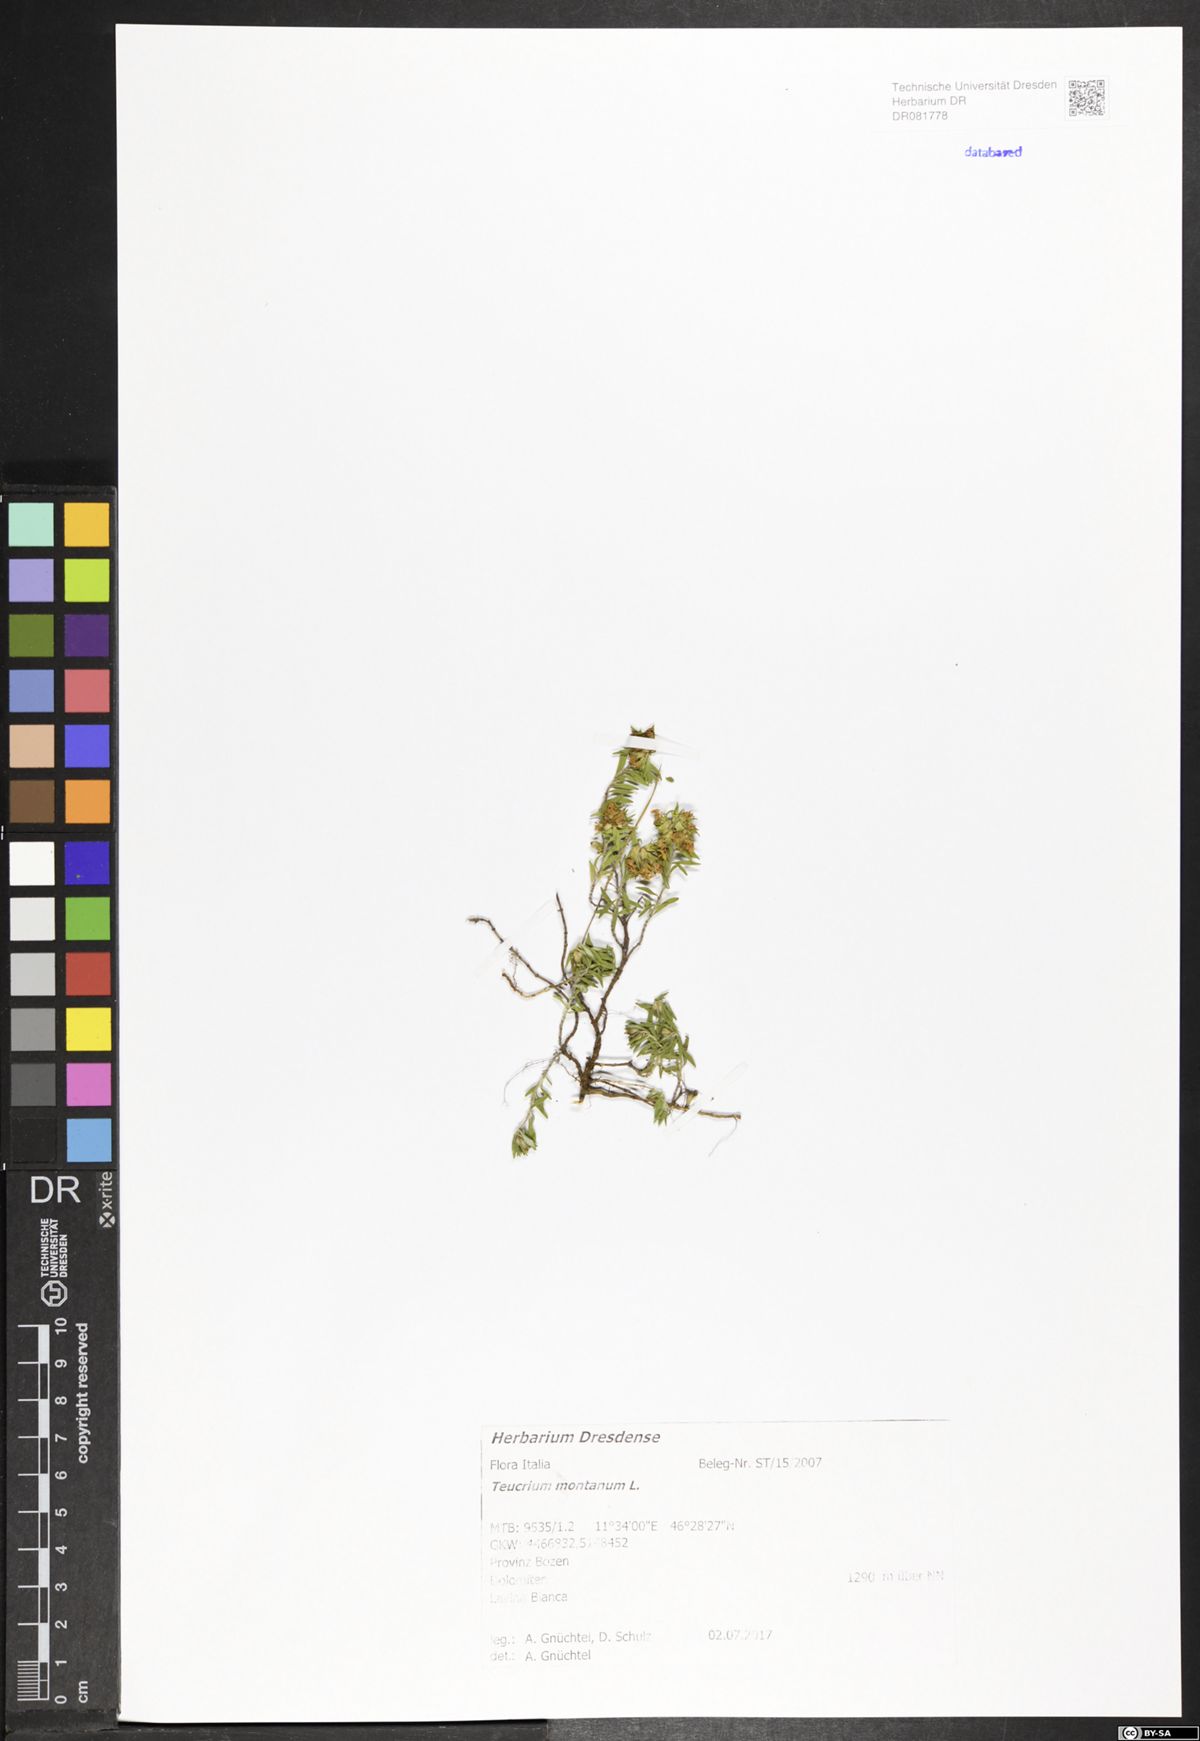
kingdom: Plantae
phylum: Tracheophyta
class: Magnoliopsida
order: Lamiales
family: Lamiaceae
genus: Teucrium
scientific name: Teucrium montanum
